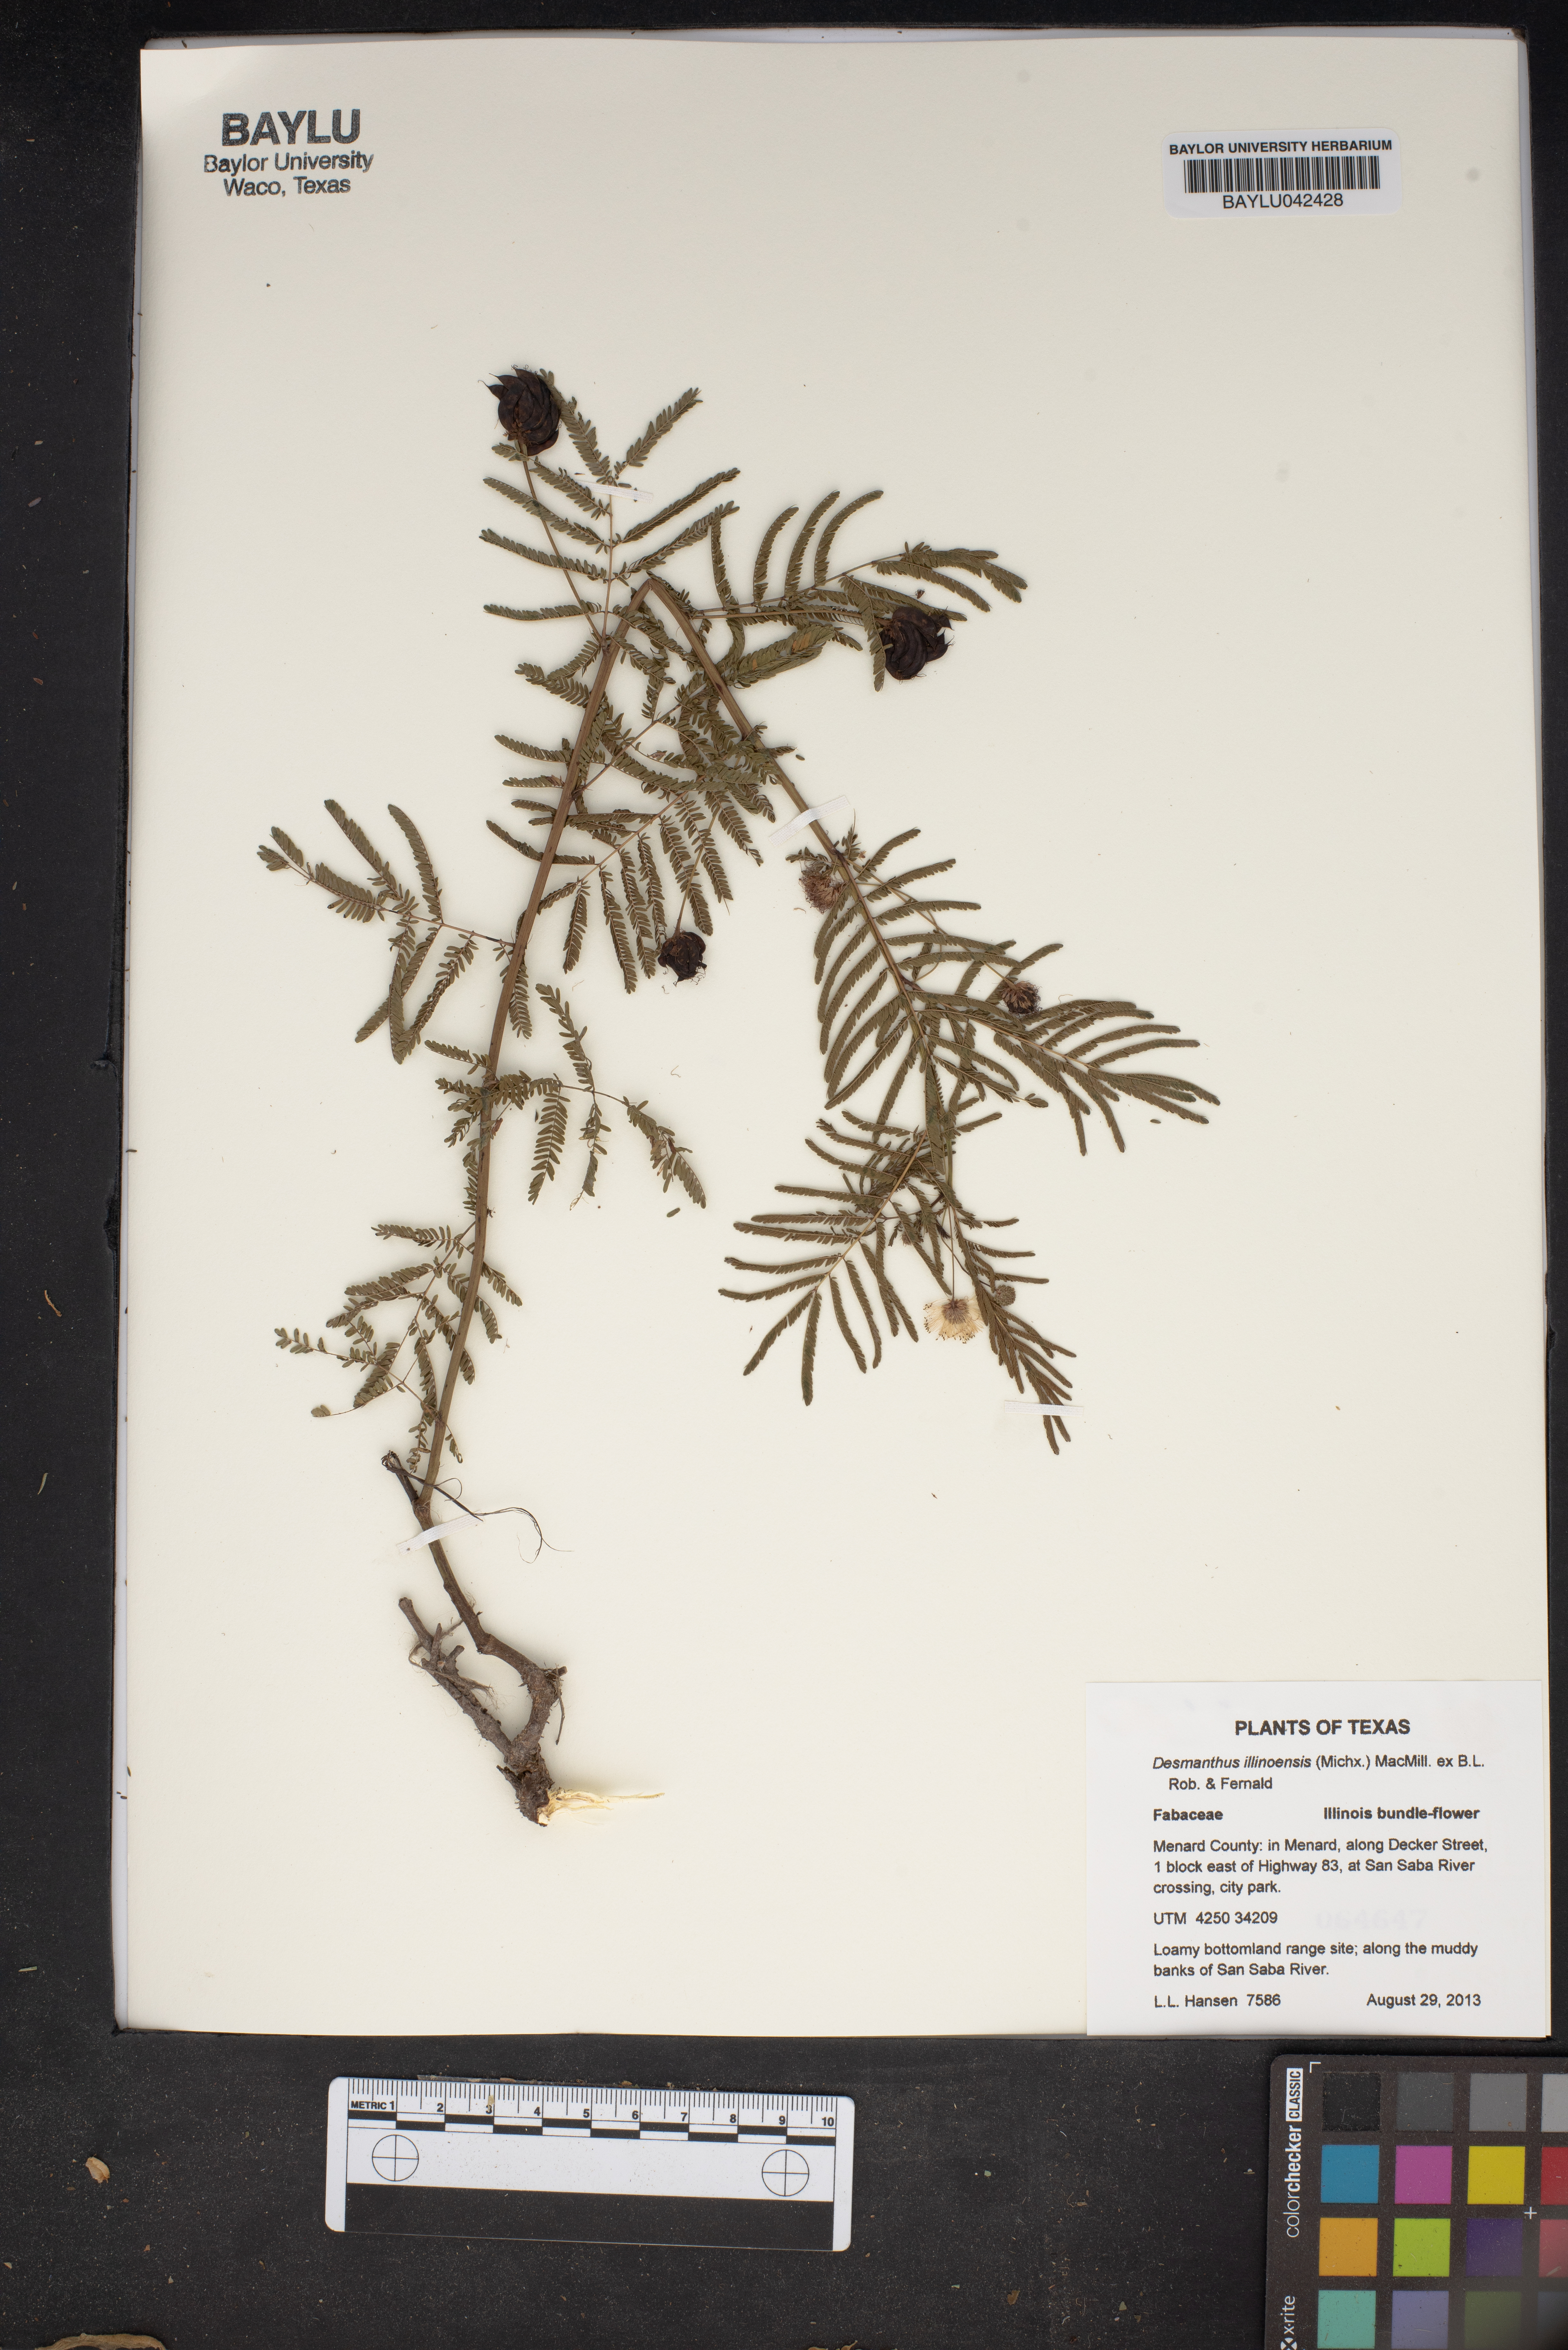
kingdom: Plantae
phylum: Tracheophyta
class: Magnoliopsida
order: Fabales
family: Fabaceae
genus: Desmanthus
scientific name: Desmanthus illinoensis
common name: Illinois bundle-flower
